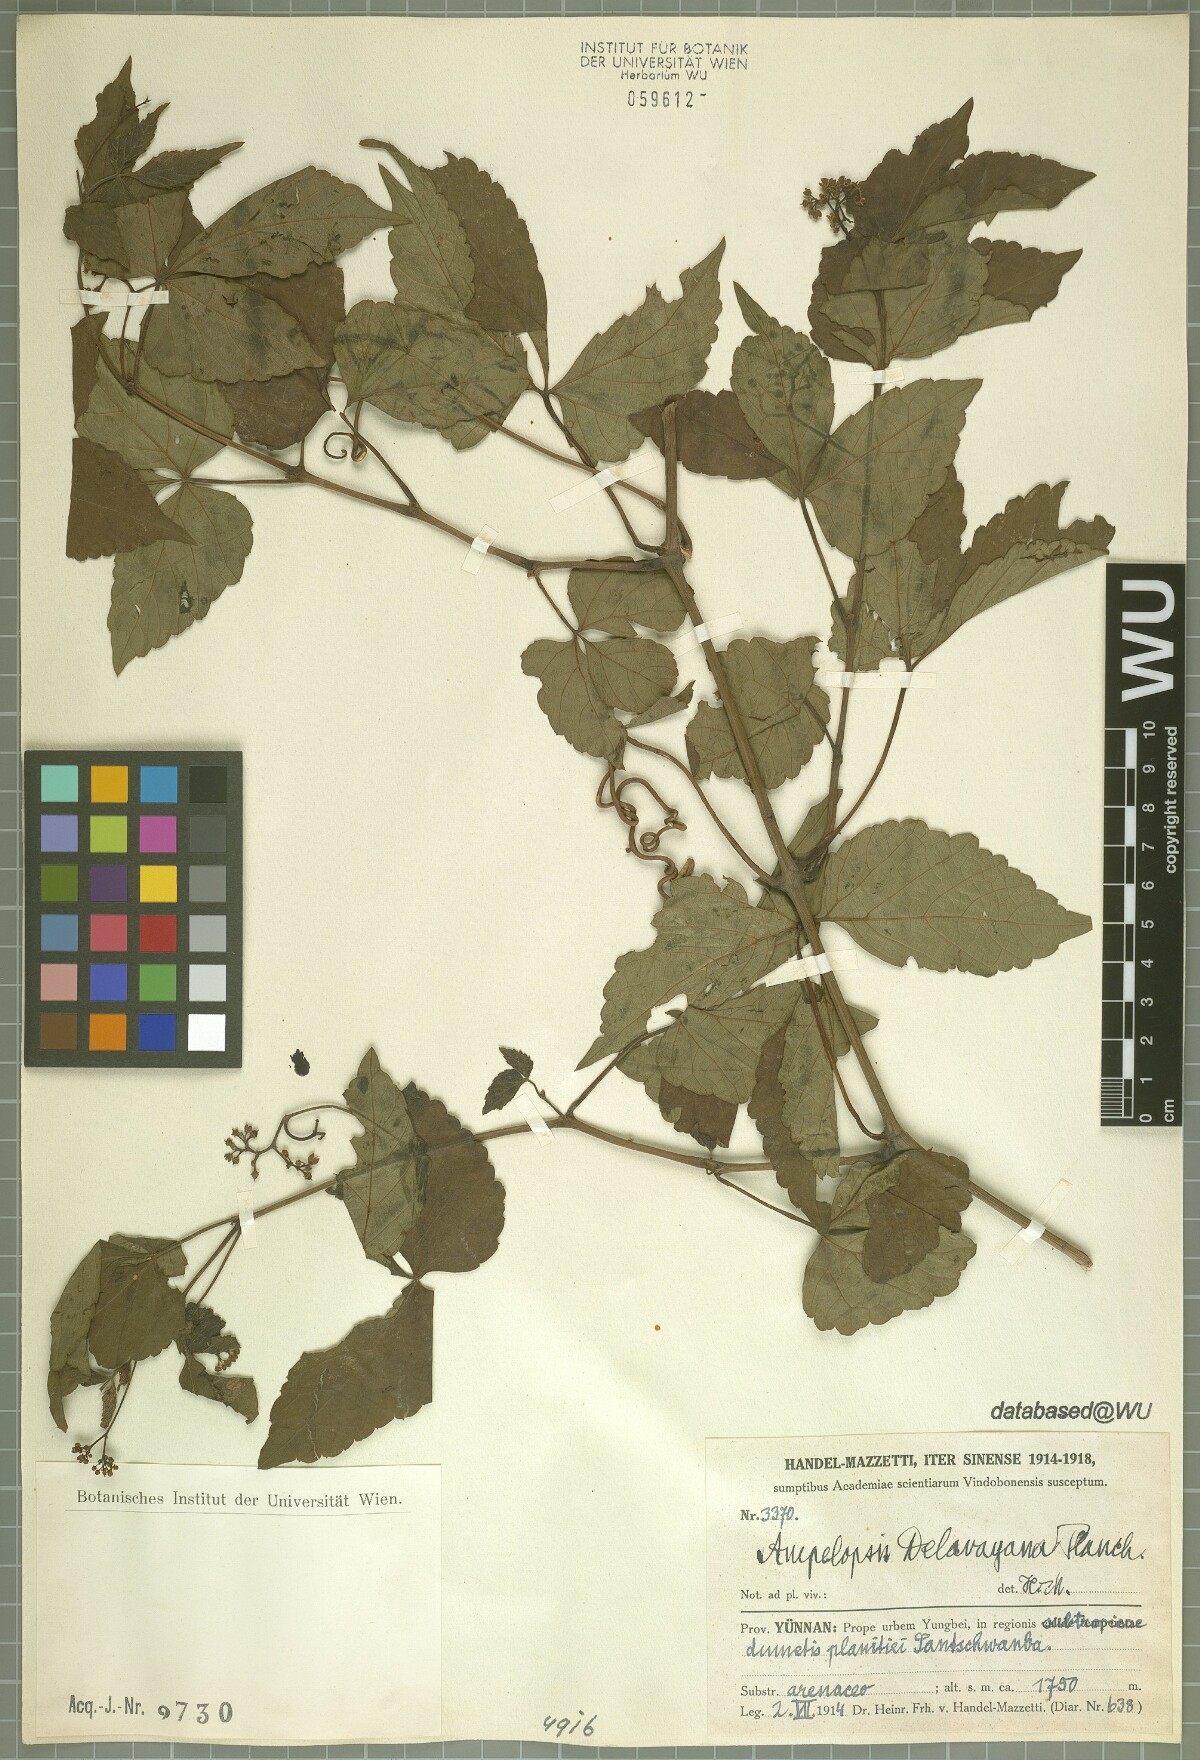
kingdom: Plantae
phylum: Tracheophyta
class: Magnoliopsida
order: Vitales
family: Vitaceae
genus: Ampelopsis
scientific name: Ampelopsis delavayana
